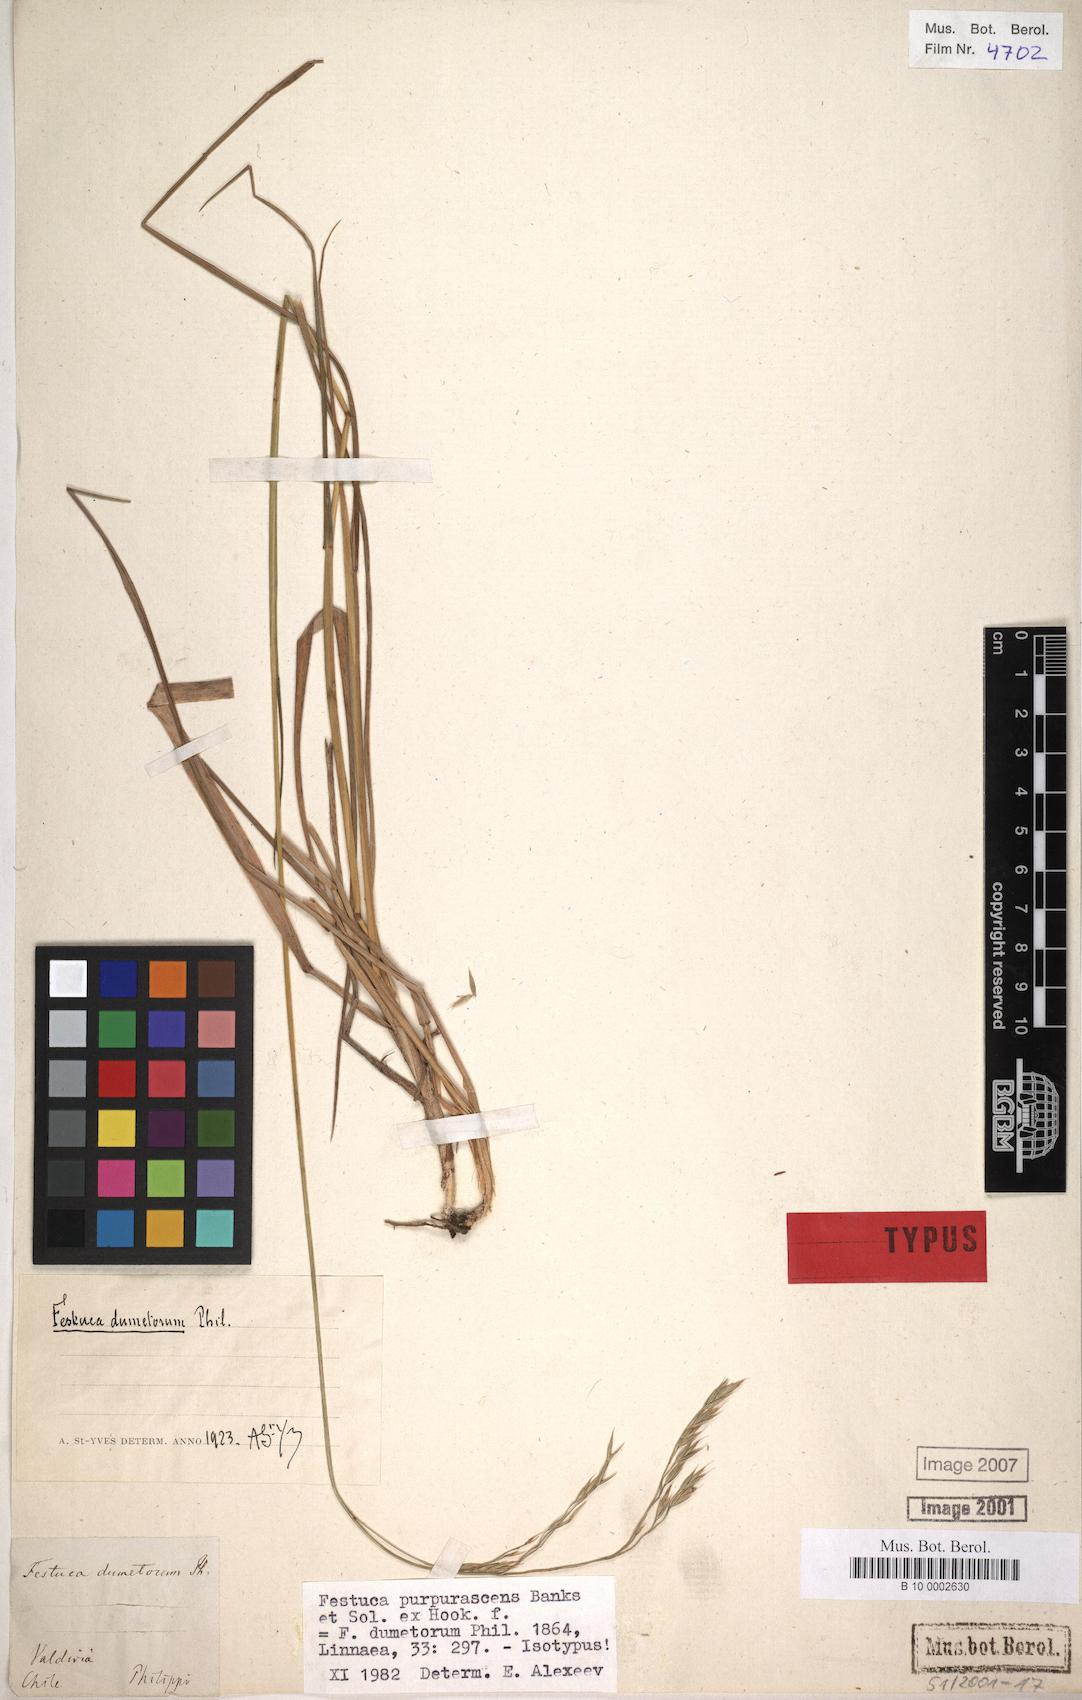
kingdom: Plantae
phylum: Tracheophyta
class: Liliopsida
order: Poales
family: Poaceae
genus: Festuca
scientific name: Festuca
